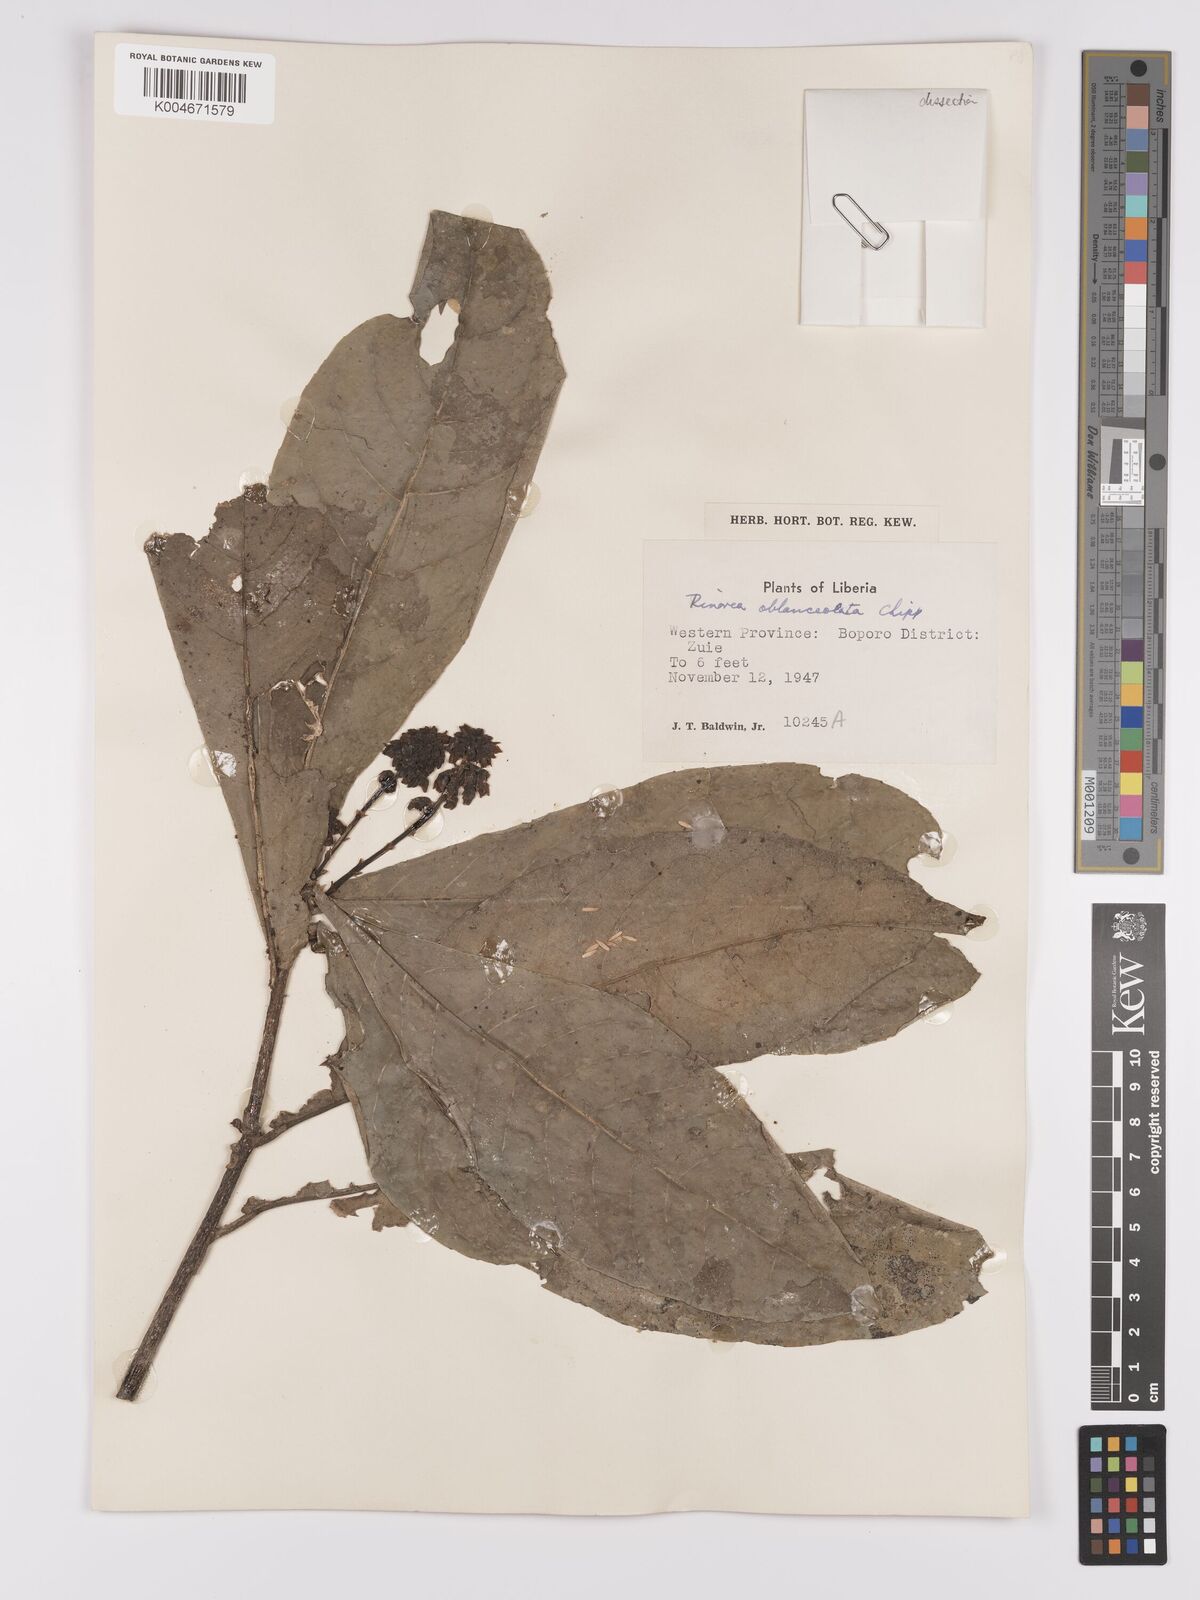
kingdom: Plantae
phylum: Tracheophyta
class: Magnoliopsida
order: Malpighiales
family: Violaceae
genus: Rinorea
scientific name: Rinorea oblanceolata
